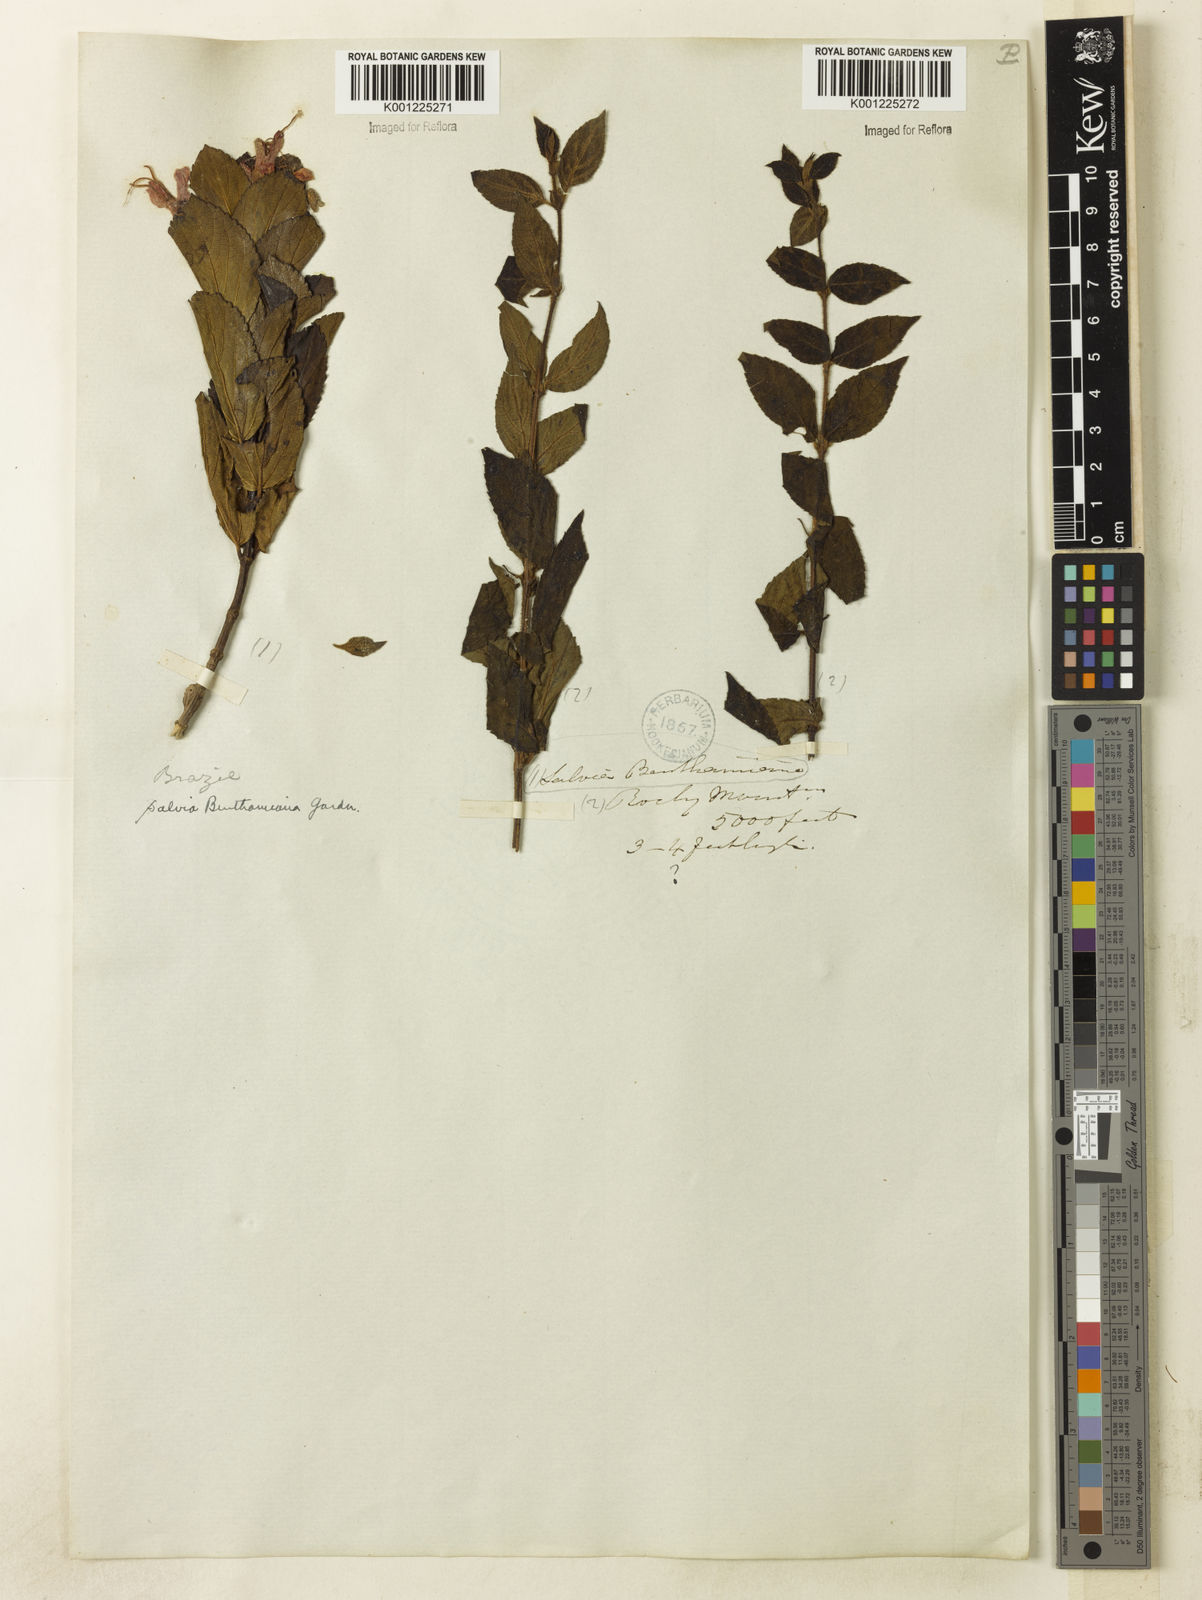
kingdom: Plantae
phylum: Tracheophyta
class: Magnoliopsida
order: Lamiales
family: Lamiaceae
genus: Salvia
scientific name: Salvia
